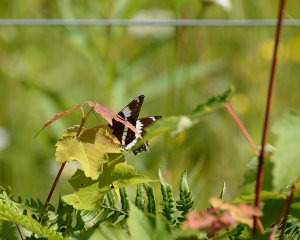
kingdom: Animalia
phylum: Arthropoda
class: Insecta
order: Lepidoptera
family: Nymphalidae
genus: Limenitis
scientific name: Limenitis arthemis
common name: Red-spotted Admiral
